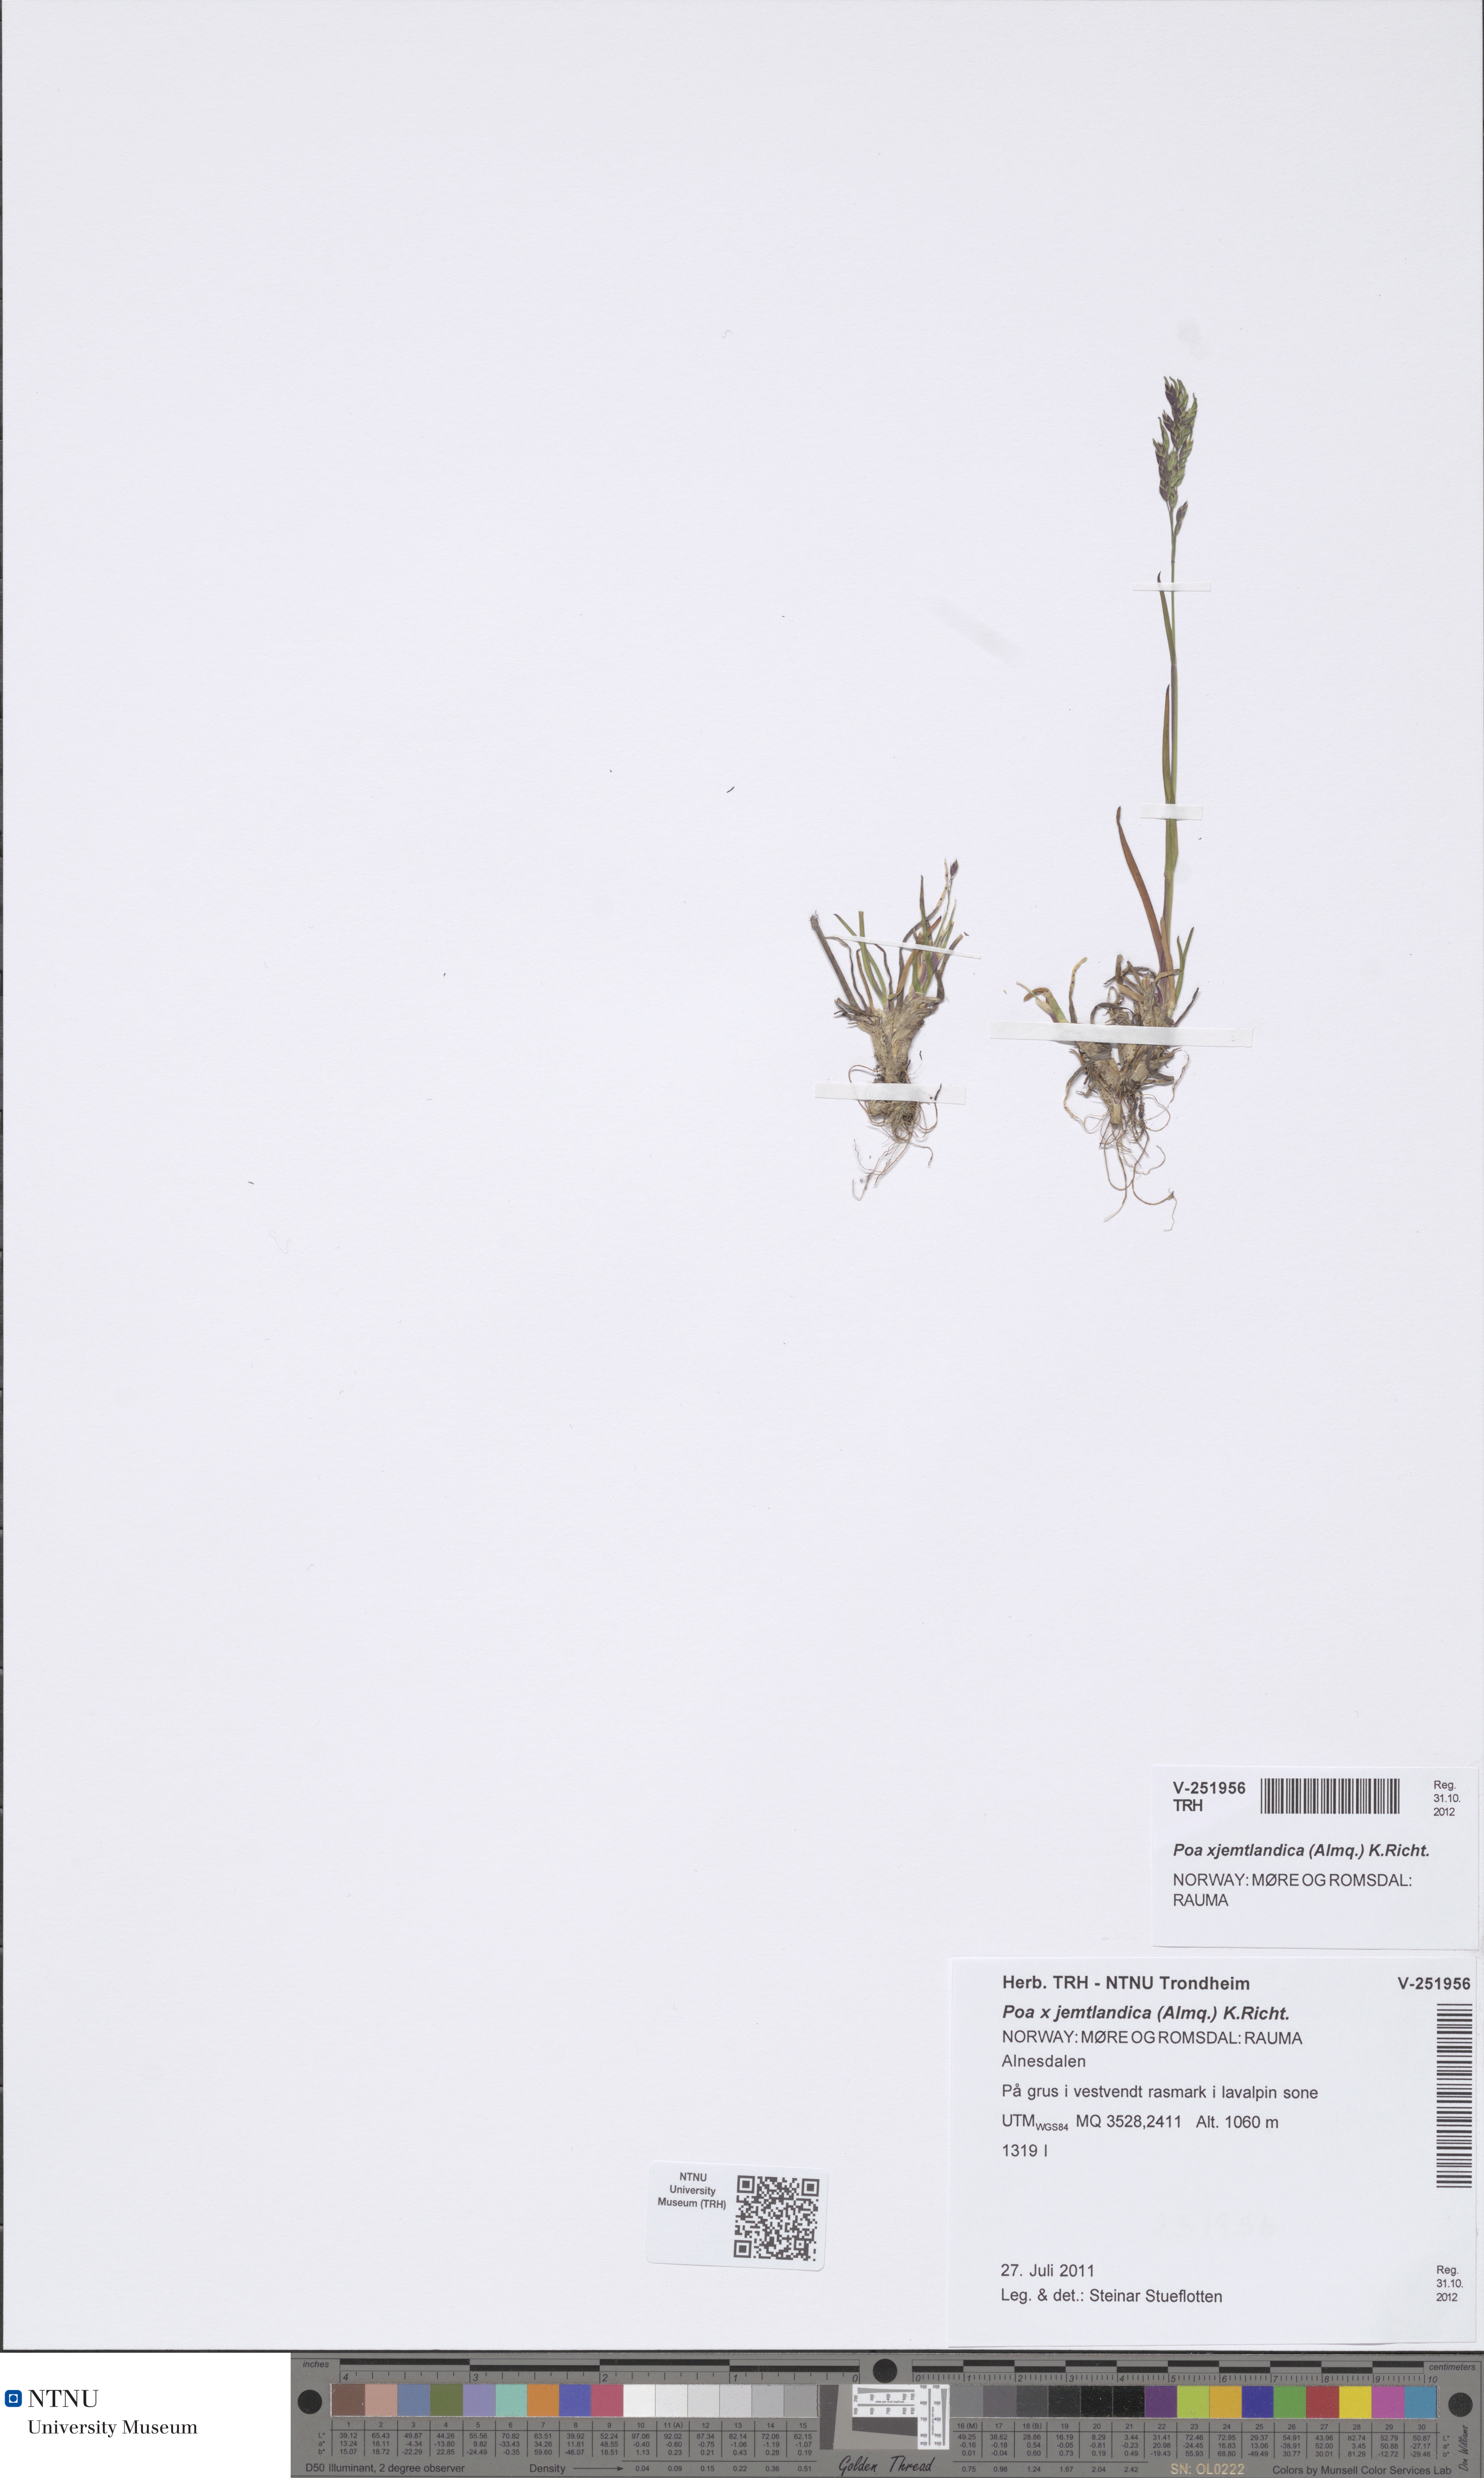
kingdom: Plantae
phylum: Tracheophyta
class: Liliopsida
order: Poales
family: Poaceae
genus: Poa
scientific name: Poa jemtlandica
